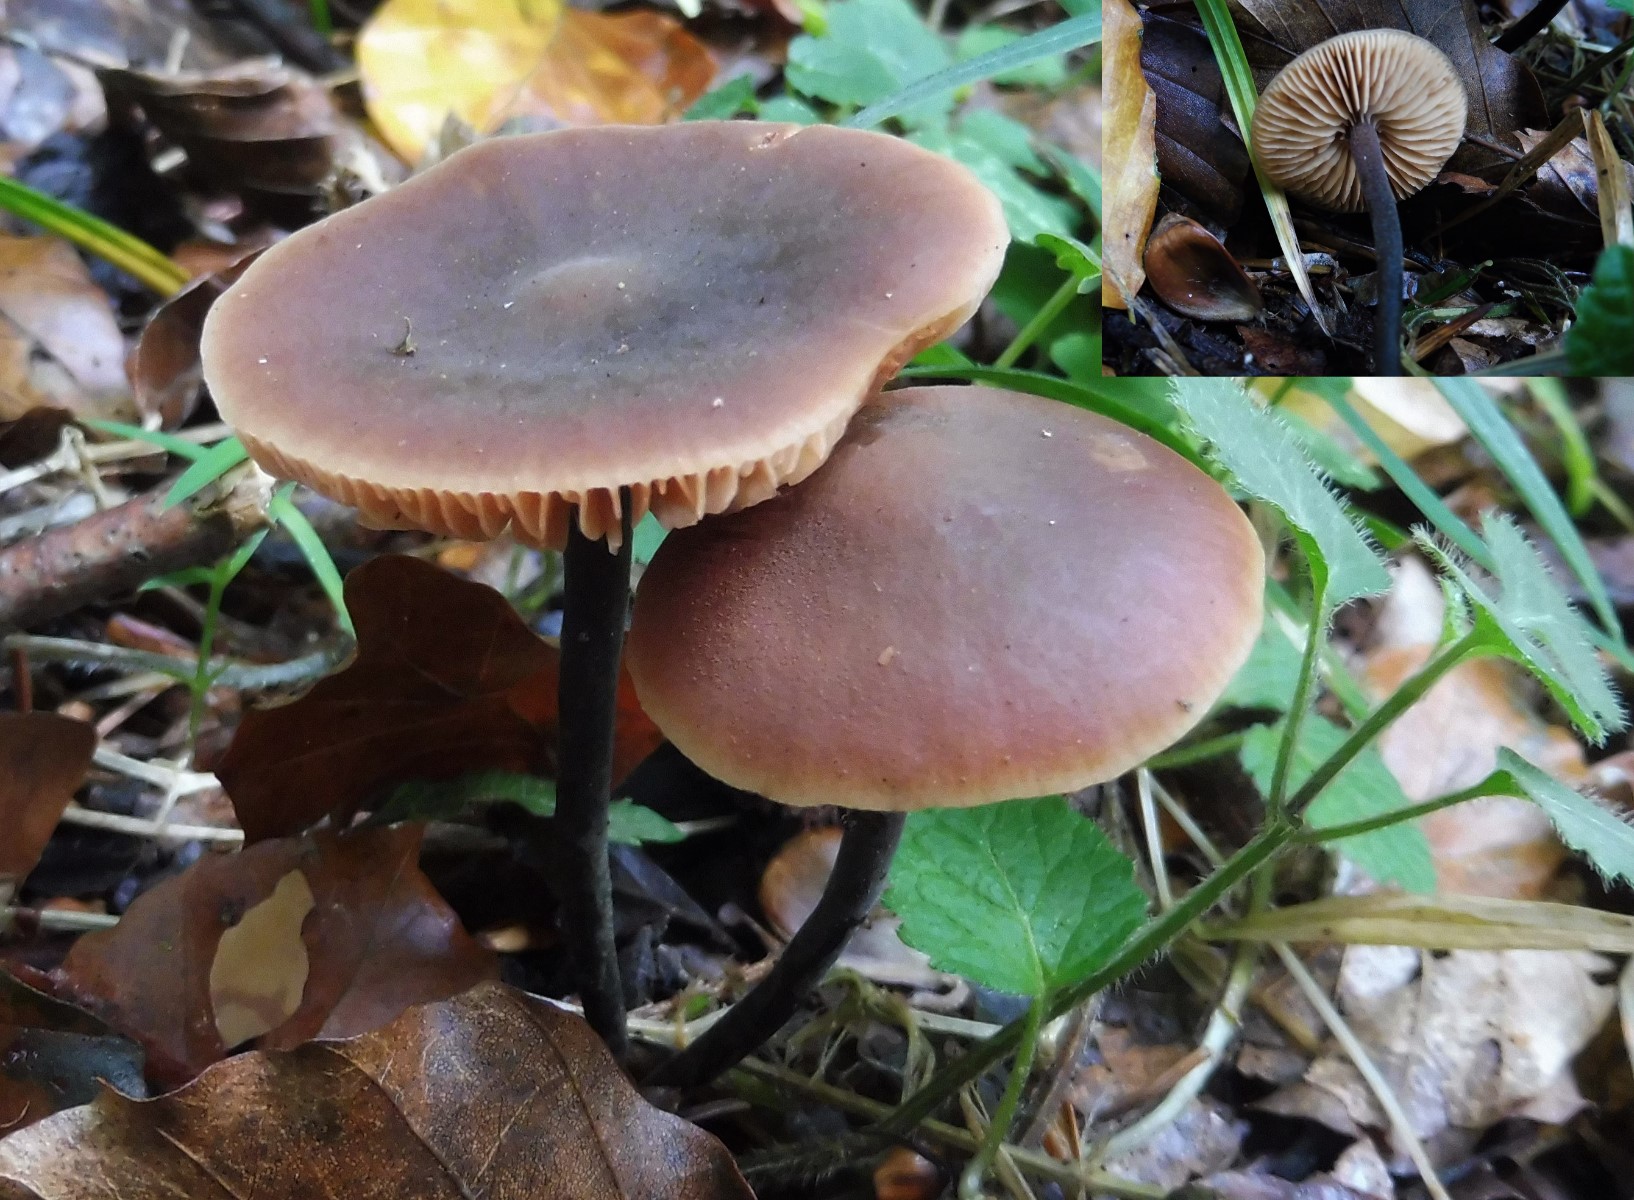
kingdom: Fungi
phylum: Basidiomycota
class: Agaricomycetes
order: Agaricales
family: Macrocystidiaceae
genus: Macrocystidia
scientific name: Macrocystidia cucumis
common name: agurkehat
